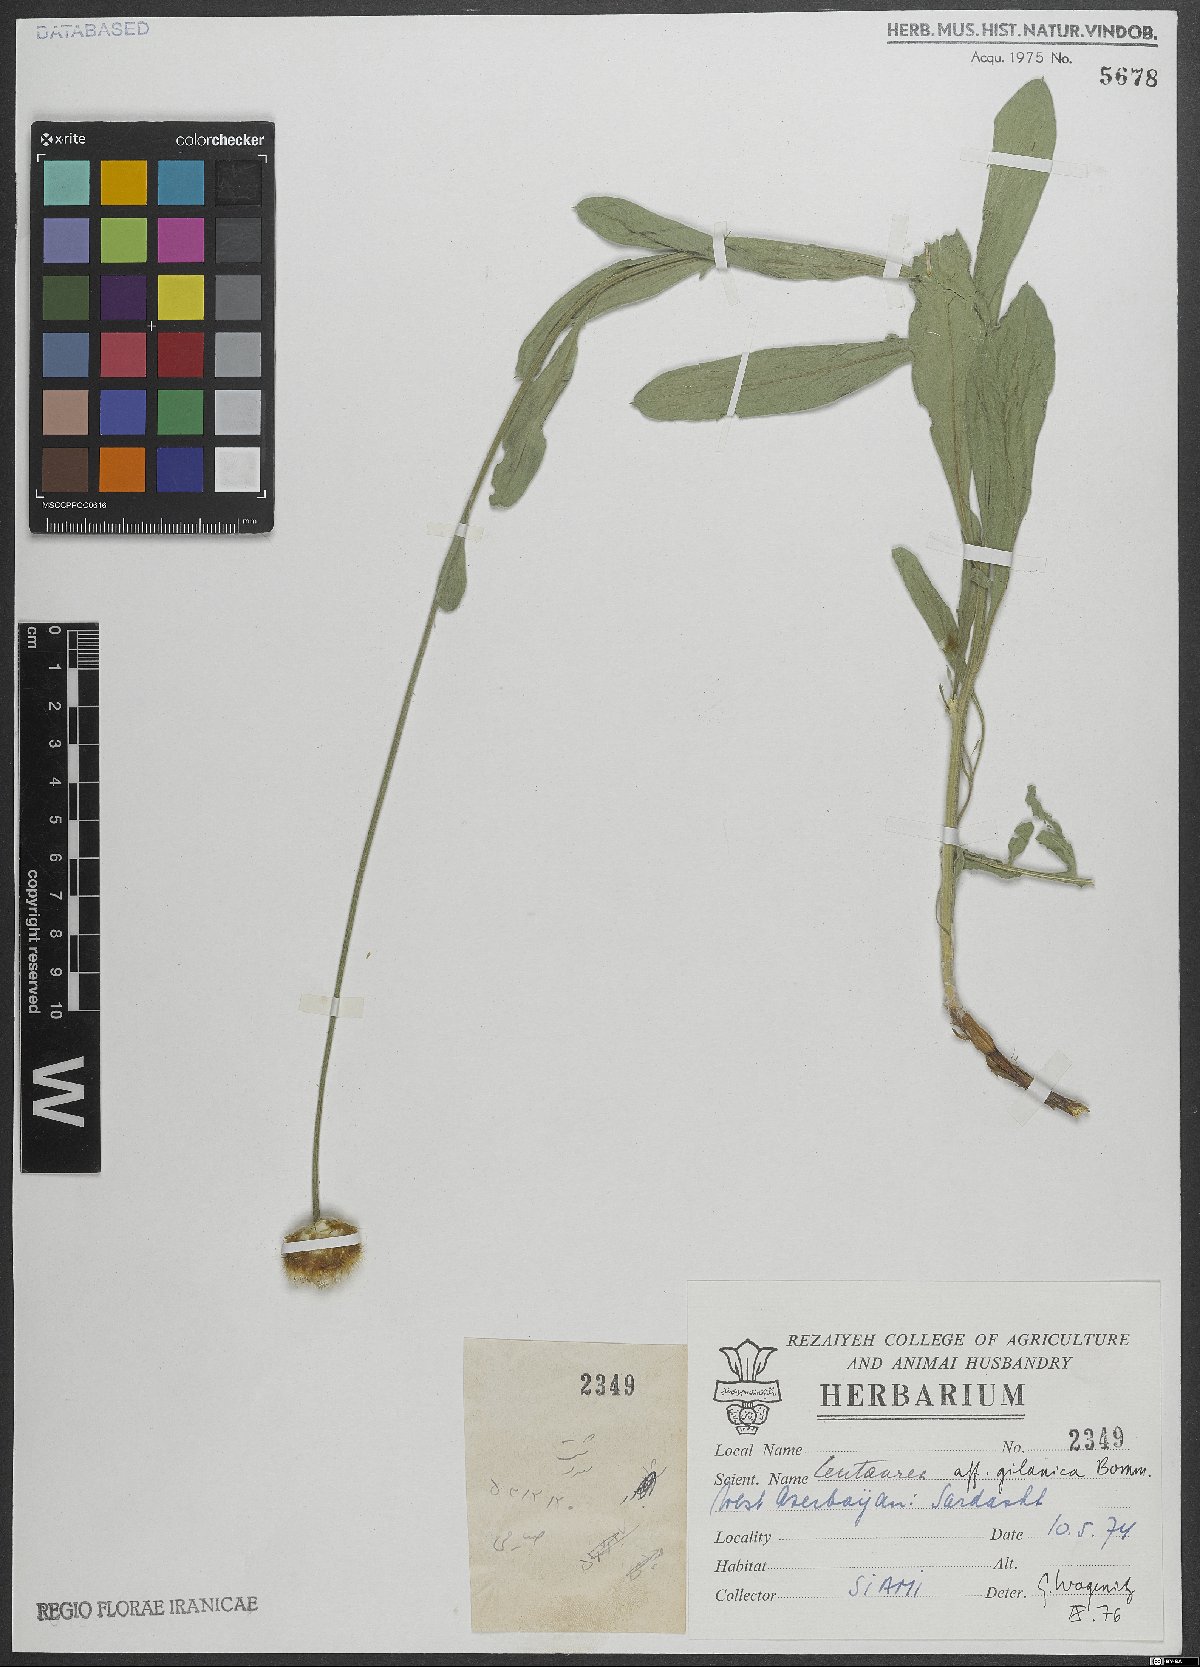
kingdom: Plantae
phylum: Tracheophyta
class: Magnoliopsida
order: Asterales
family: Asteraceae
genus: Psephellus
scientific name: Psephellus gilanicus
